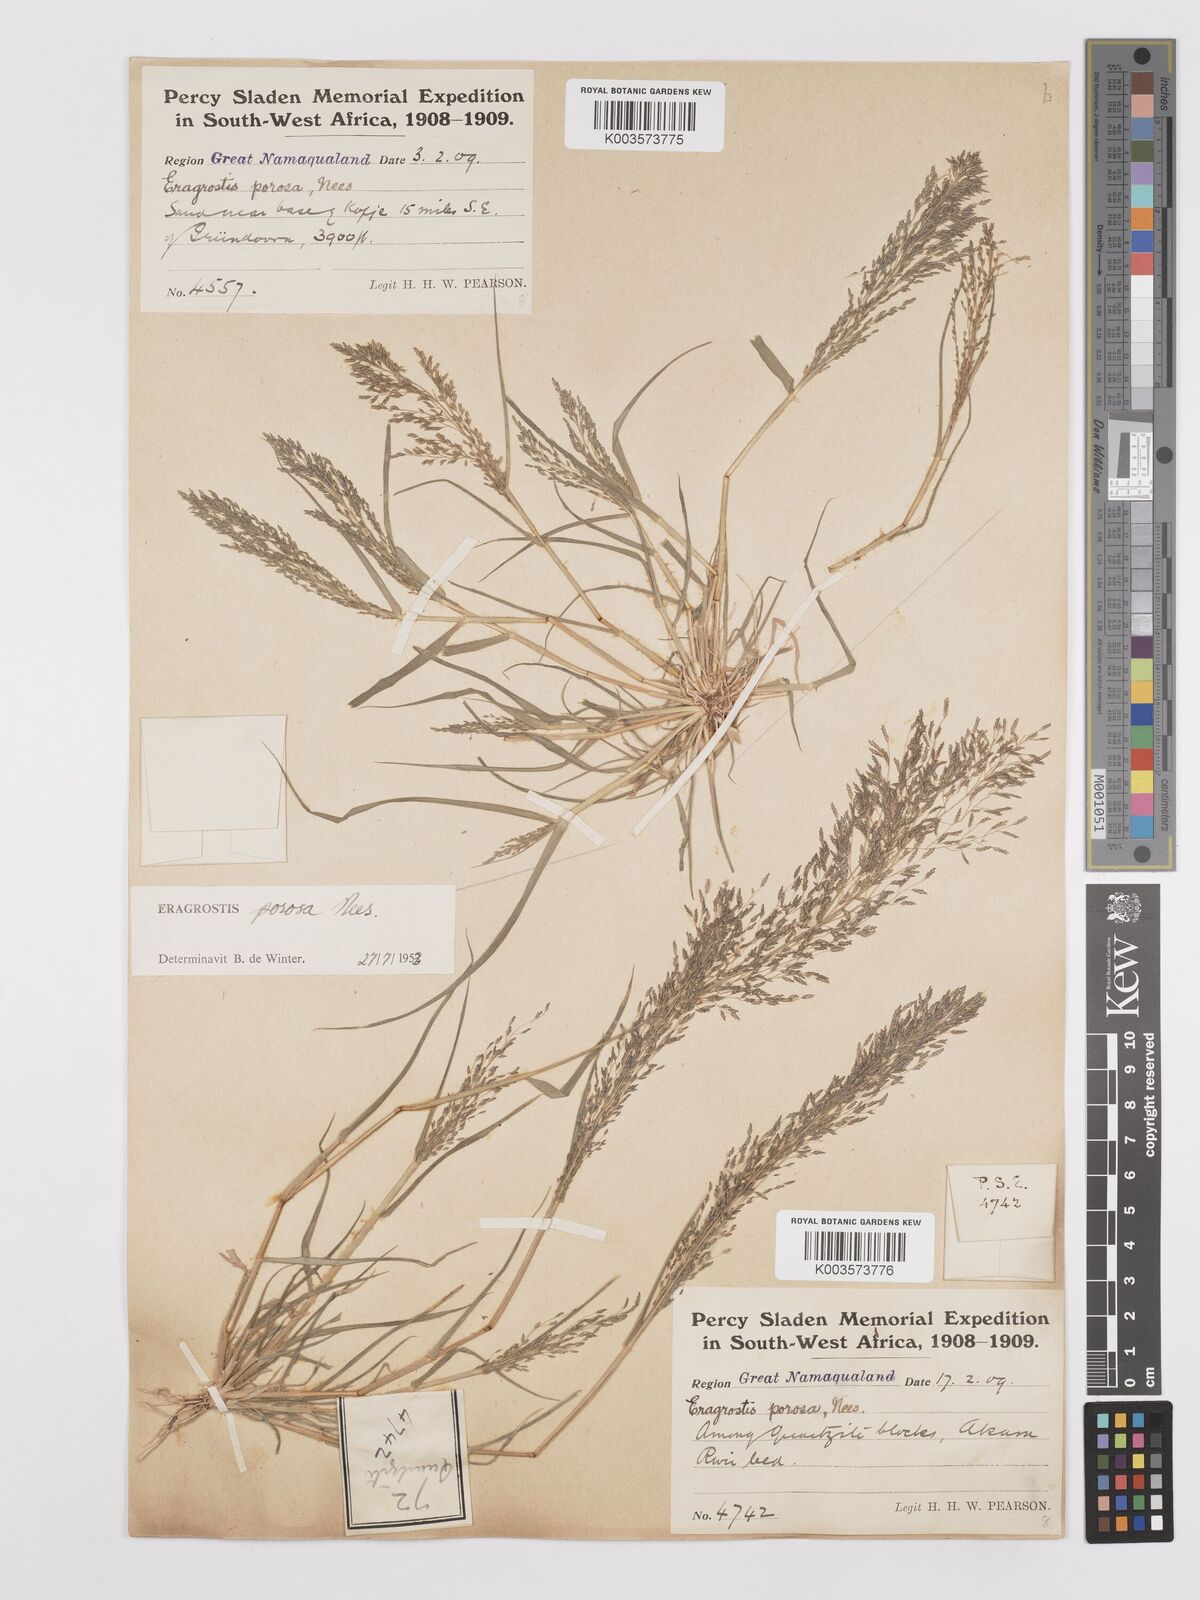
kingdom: Plantae
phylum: Tracheophyta
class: Liliopsida
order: Poales
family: Poaceae
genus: Eragrostis
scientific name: Eragrostis porosa
